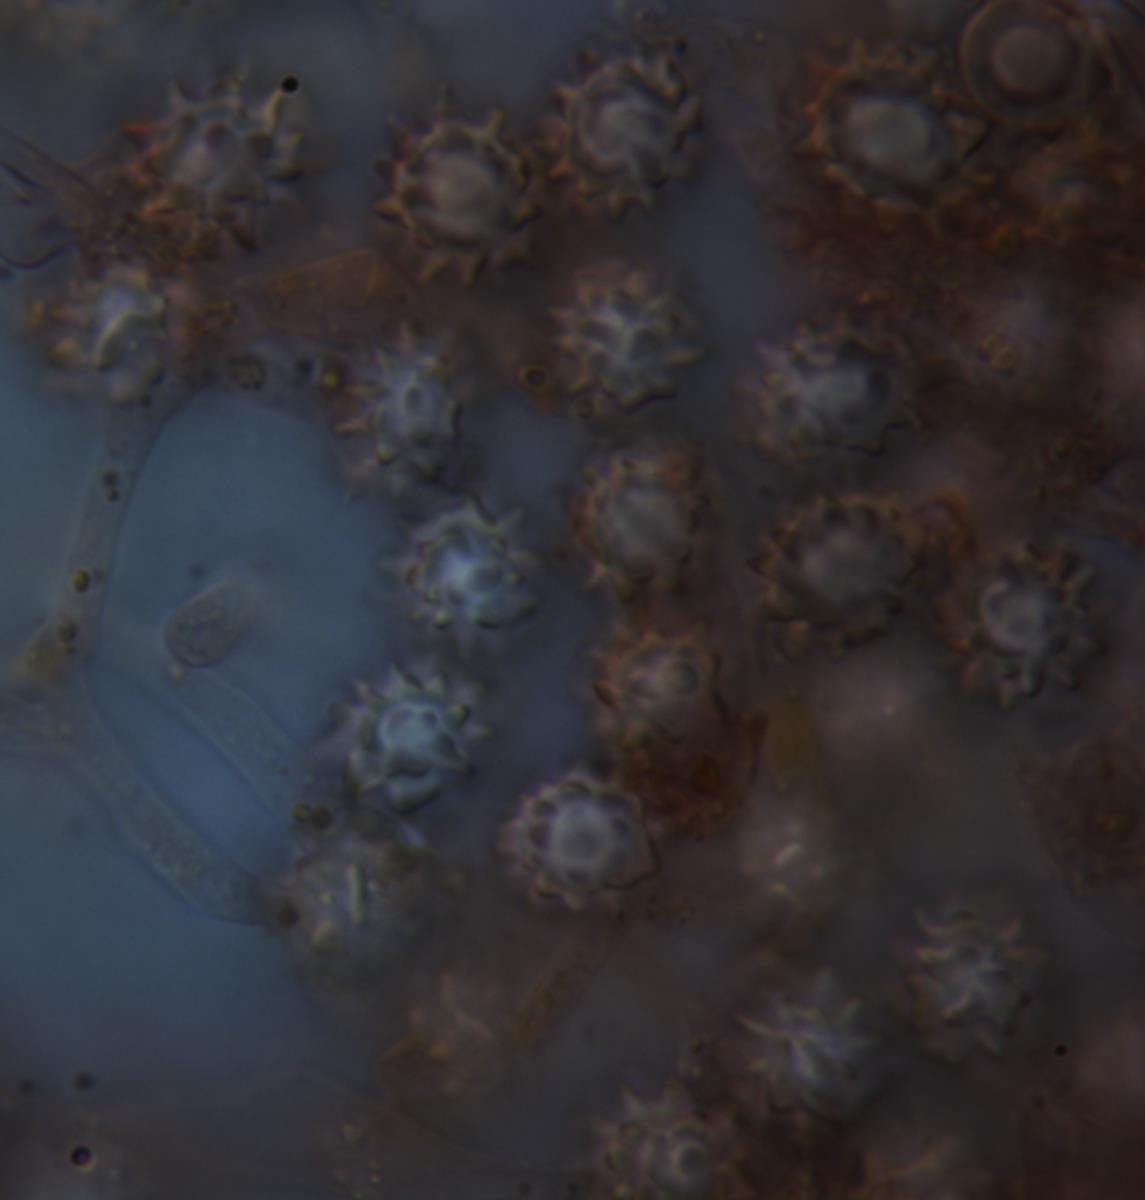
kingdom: Fungi
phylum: Basidiomycota
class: Agaricomycetes
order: Agaricales
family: Stephanosporaceae
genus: Stephanospora
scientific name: Stephanospora poropingao
